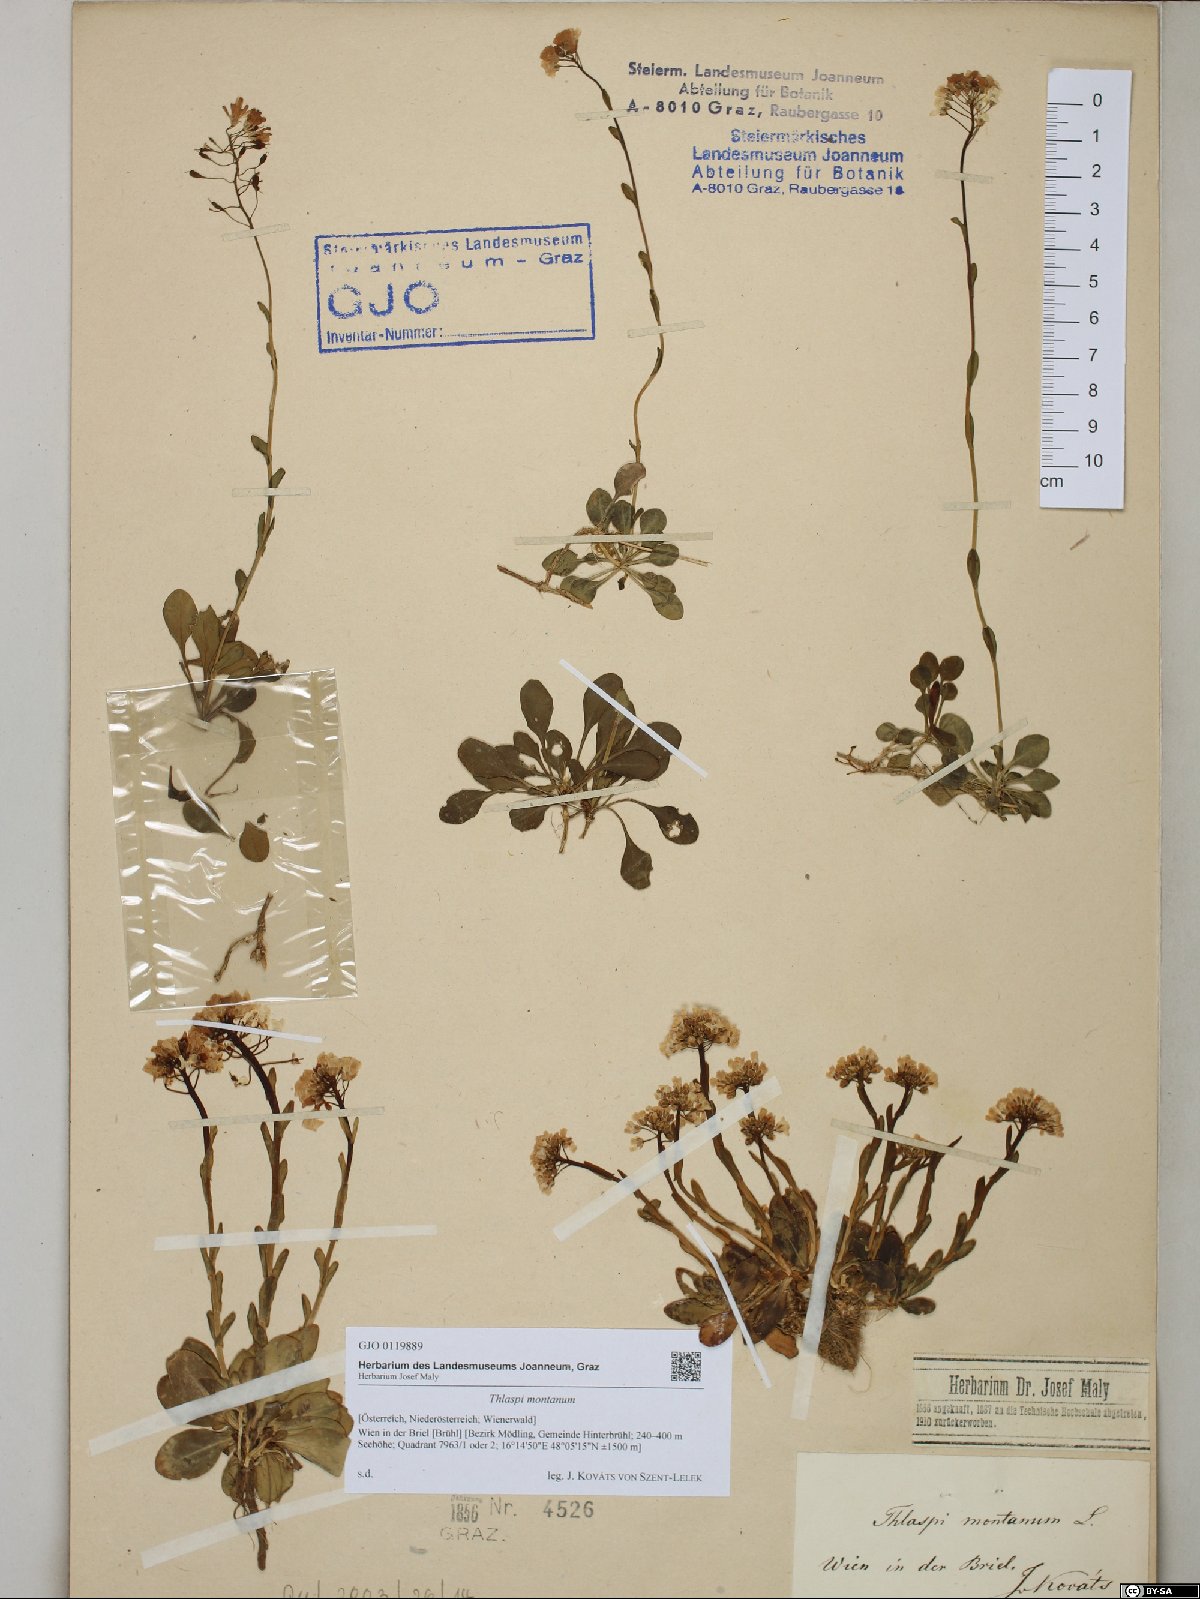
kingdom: Plantae
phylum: Tracheophyta
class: Magnoliopsida
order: Brassicales
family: Brassicaceae
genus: Noccaea
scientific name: Noccaea montana
